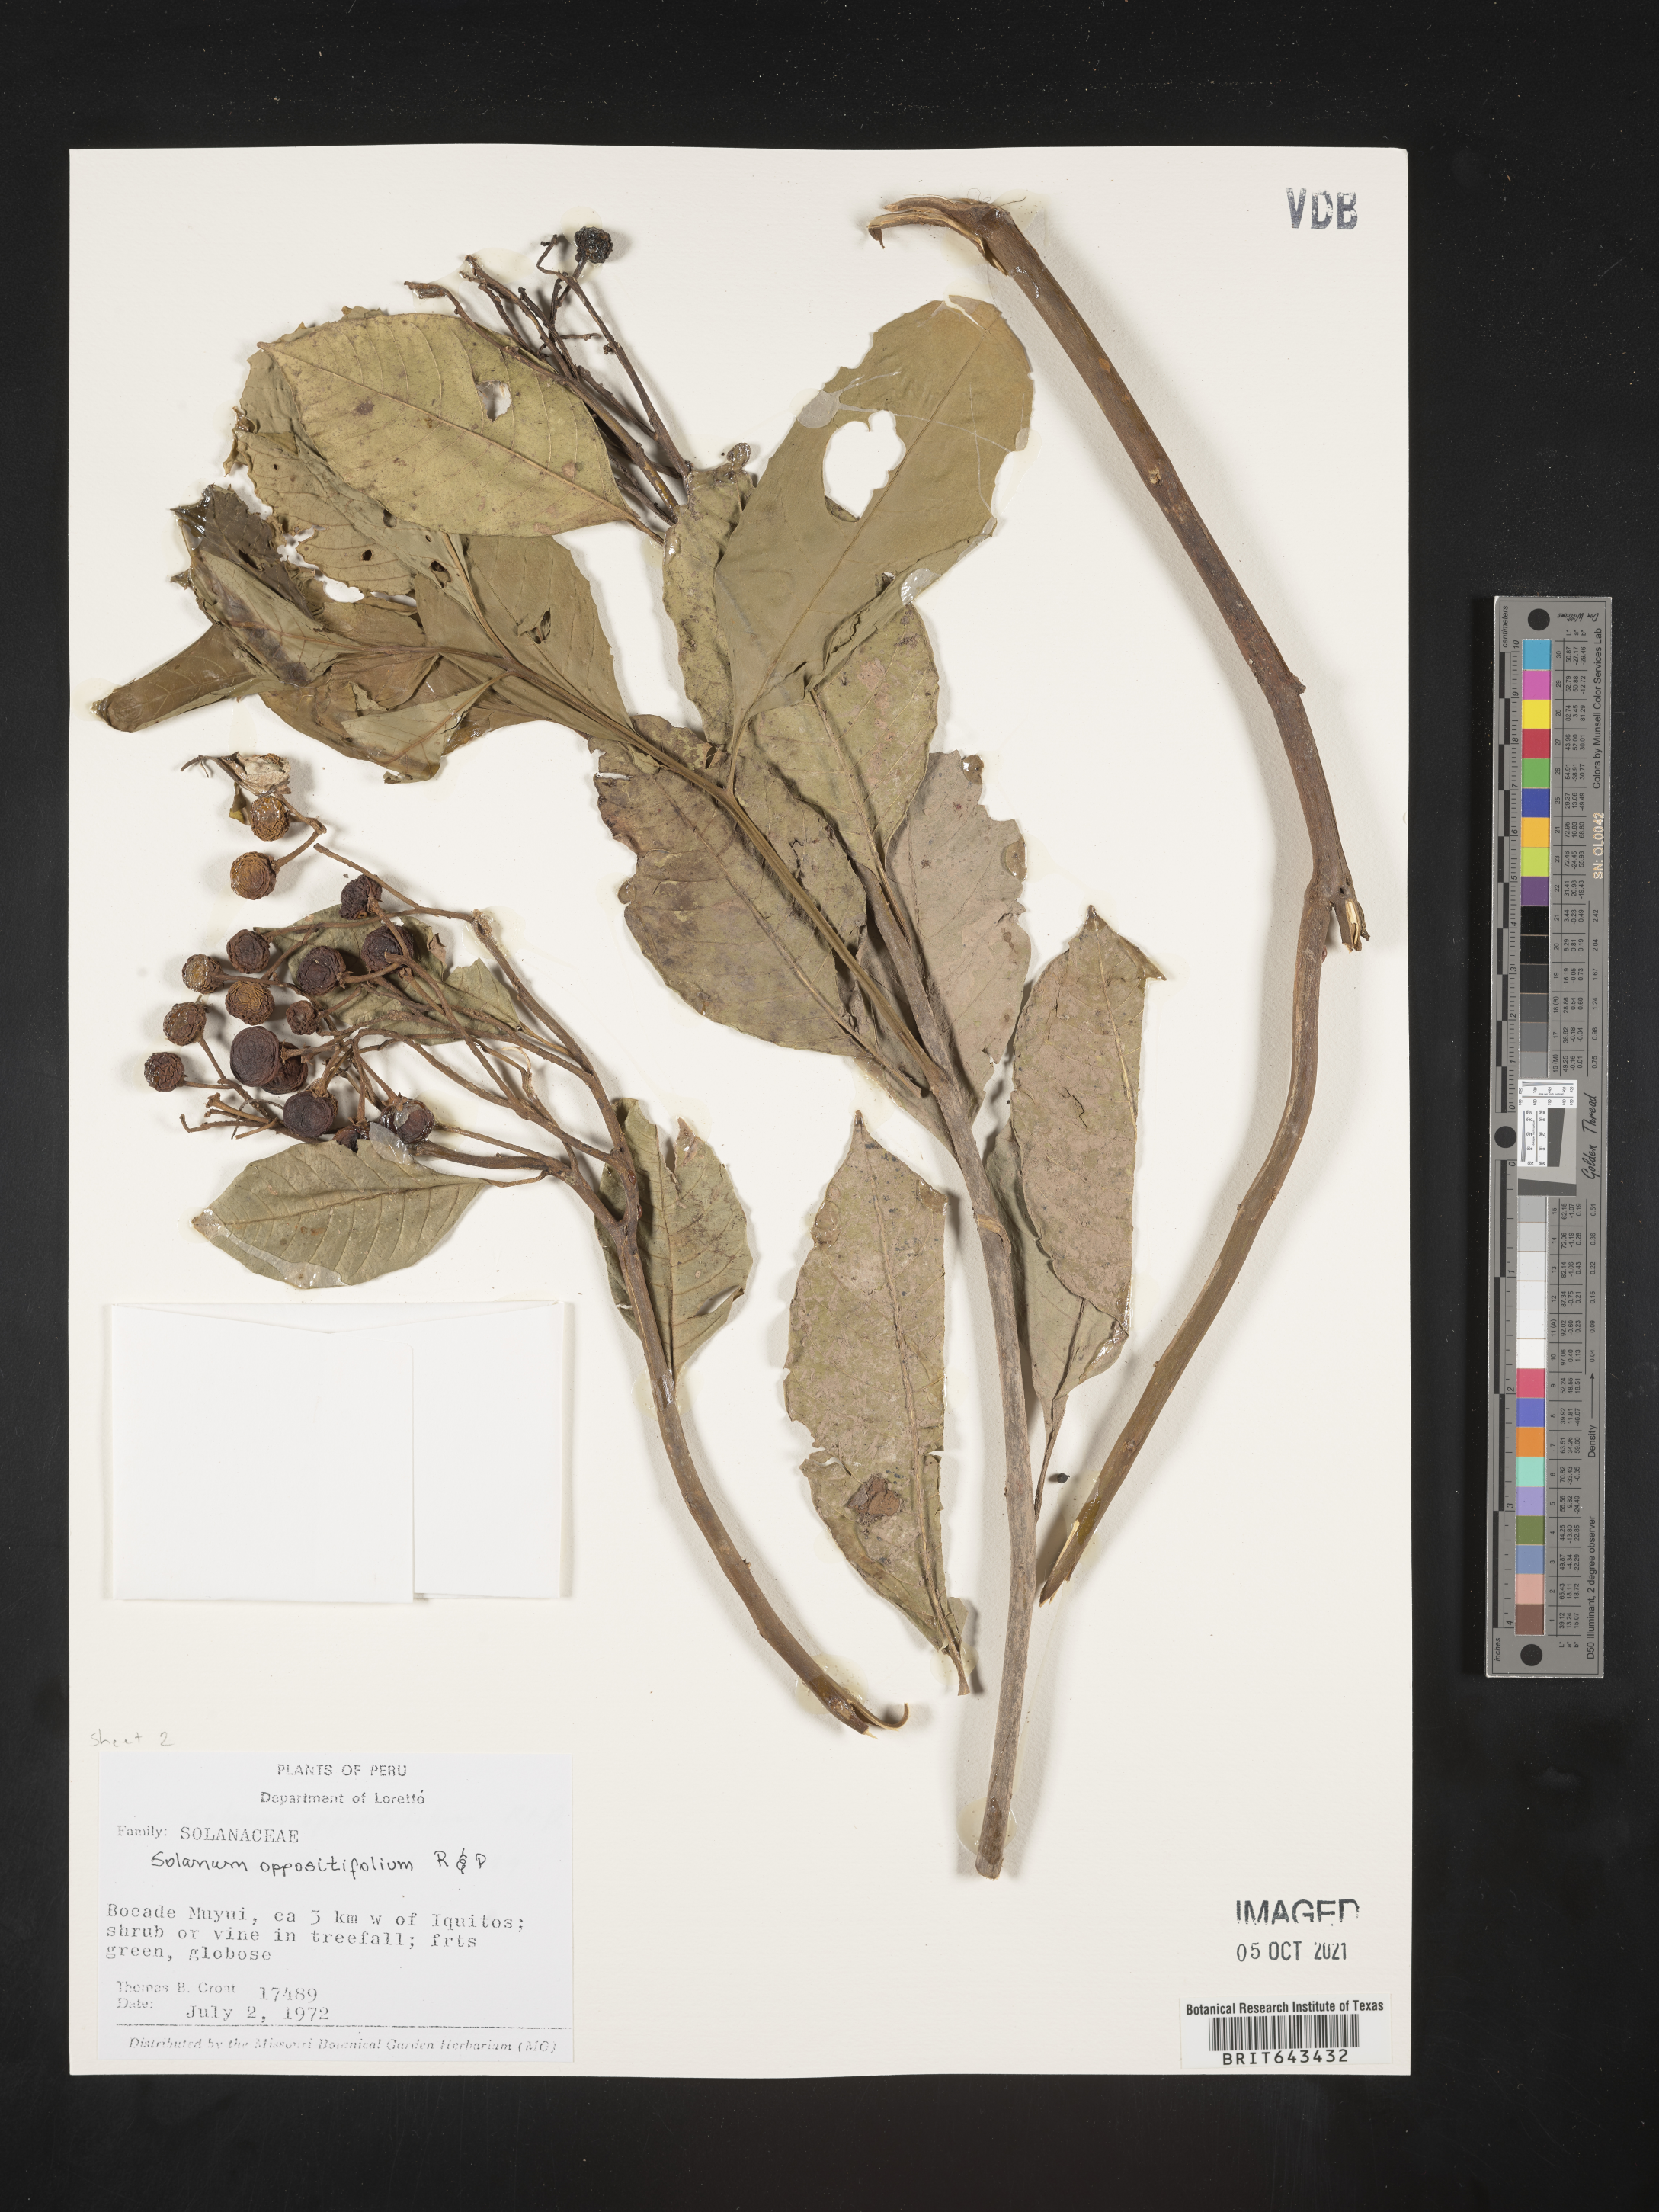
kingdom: Plantae
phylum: Tracheophyta
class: Magnoliopsida
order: Solanales
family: Solanaceae
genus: Solanum
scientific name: Solanum oppositifolium
